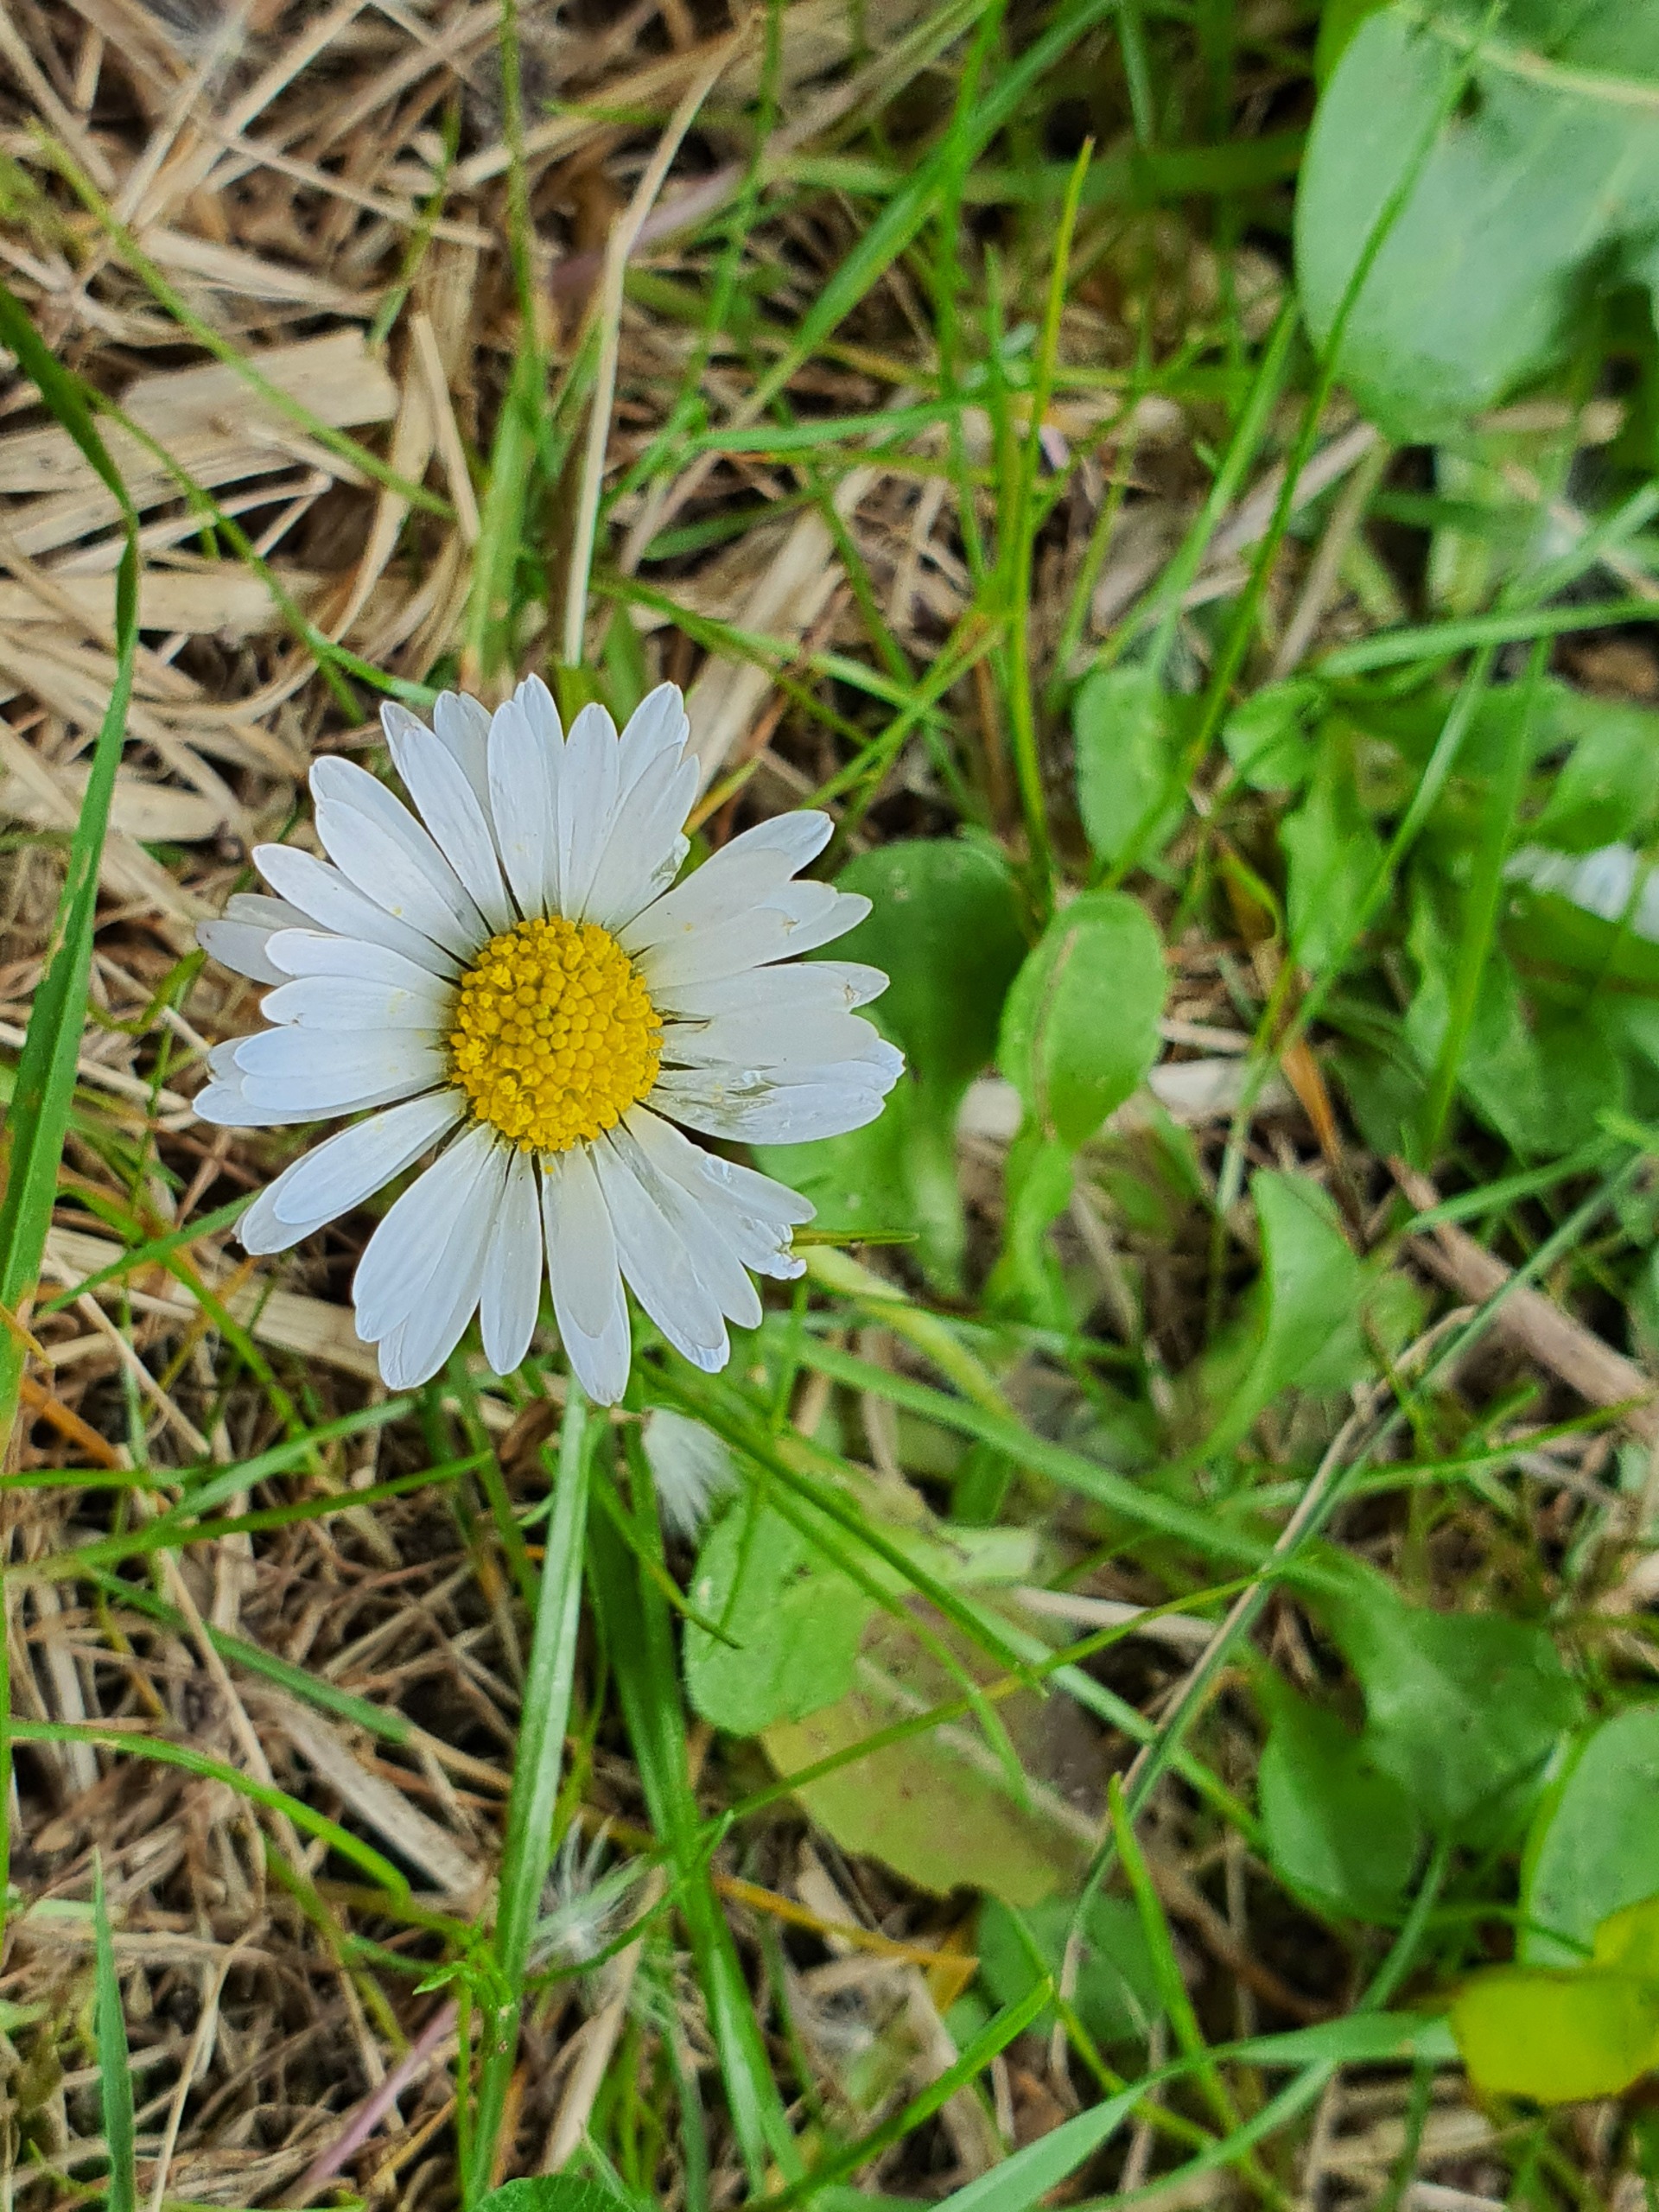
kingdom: Plantae
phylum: Tracheophyta
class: Magnoliopsida
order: Asterales
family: Asteraceae
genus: Bellis
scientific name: Bellis perennis
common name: Tusindfryd
